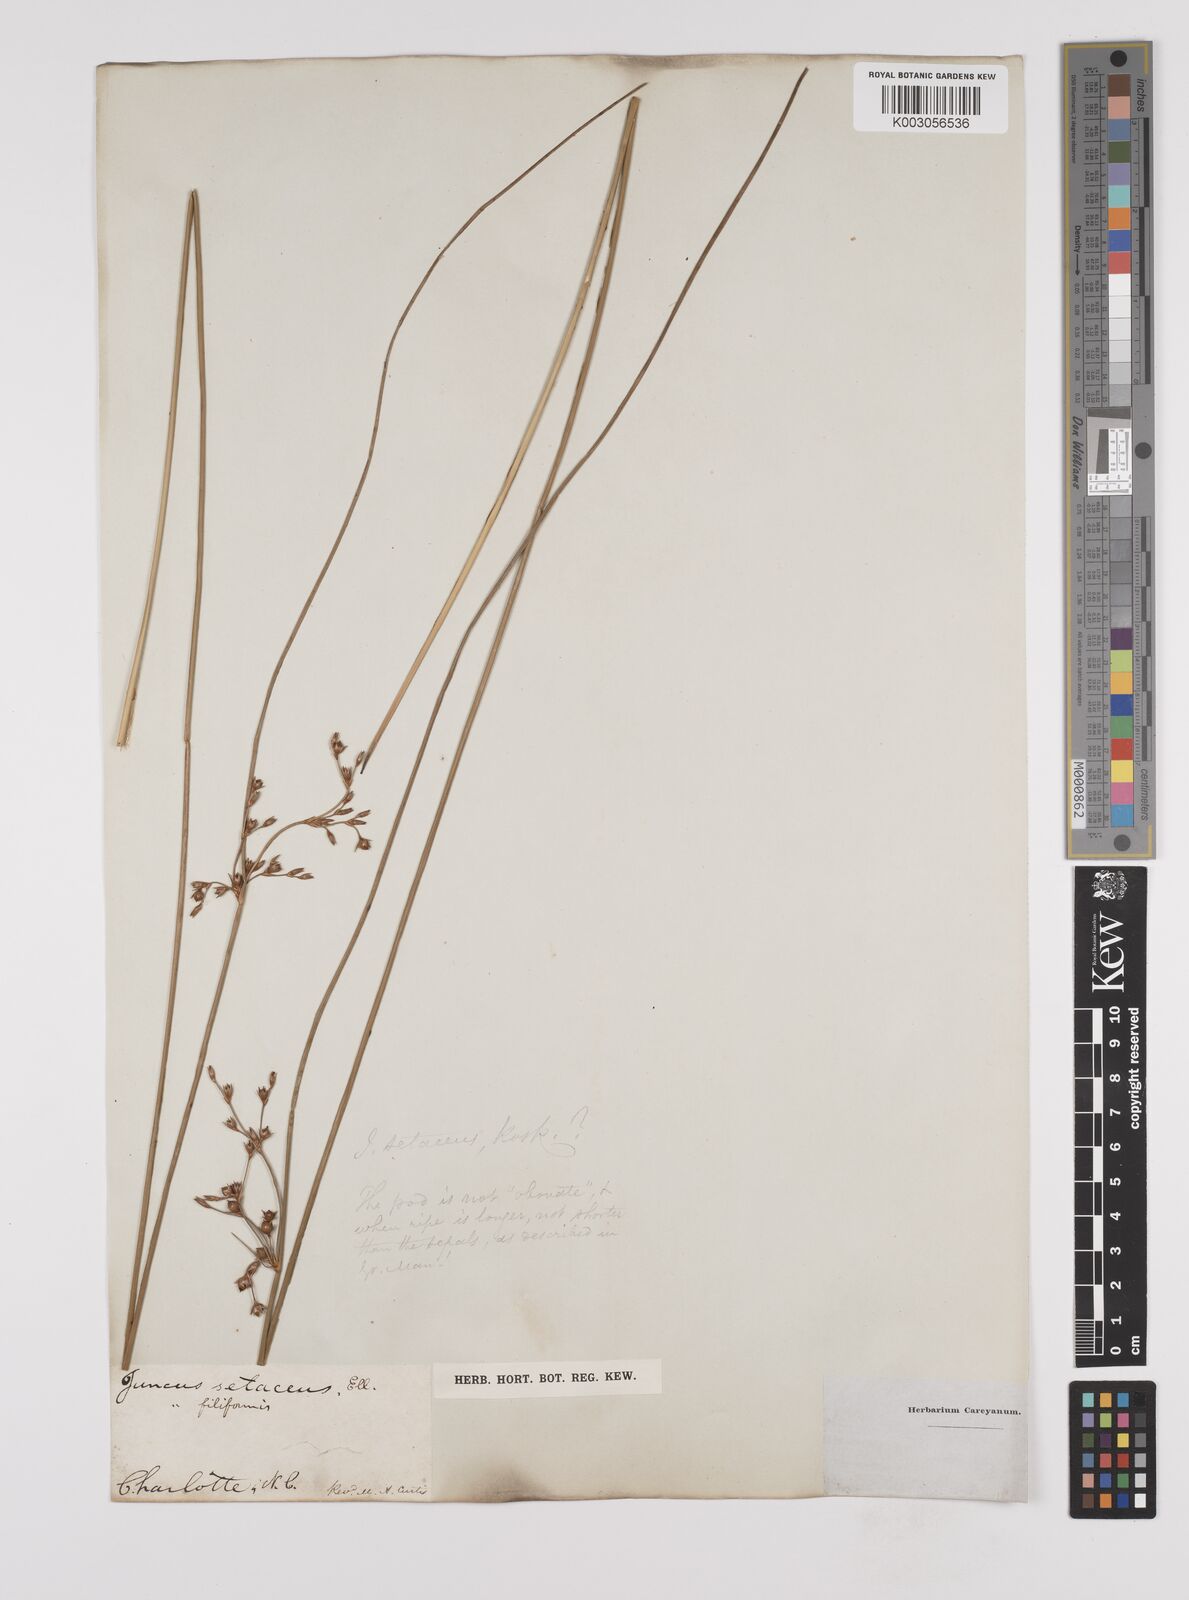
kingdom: Plantae
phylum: Tracheophyta
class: Liliopsida
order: Poales
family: Juncaceae
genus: Juncus
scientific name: Juncus balticus
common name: Baltic rush
